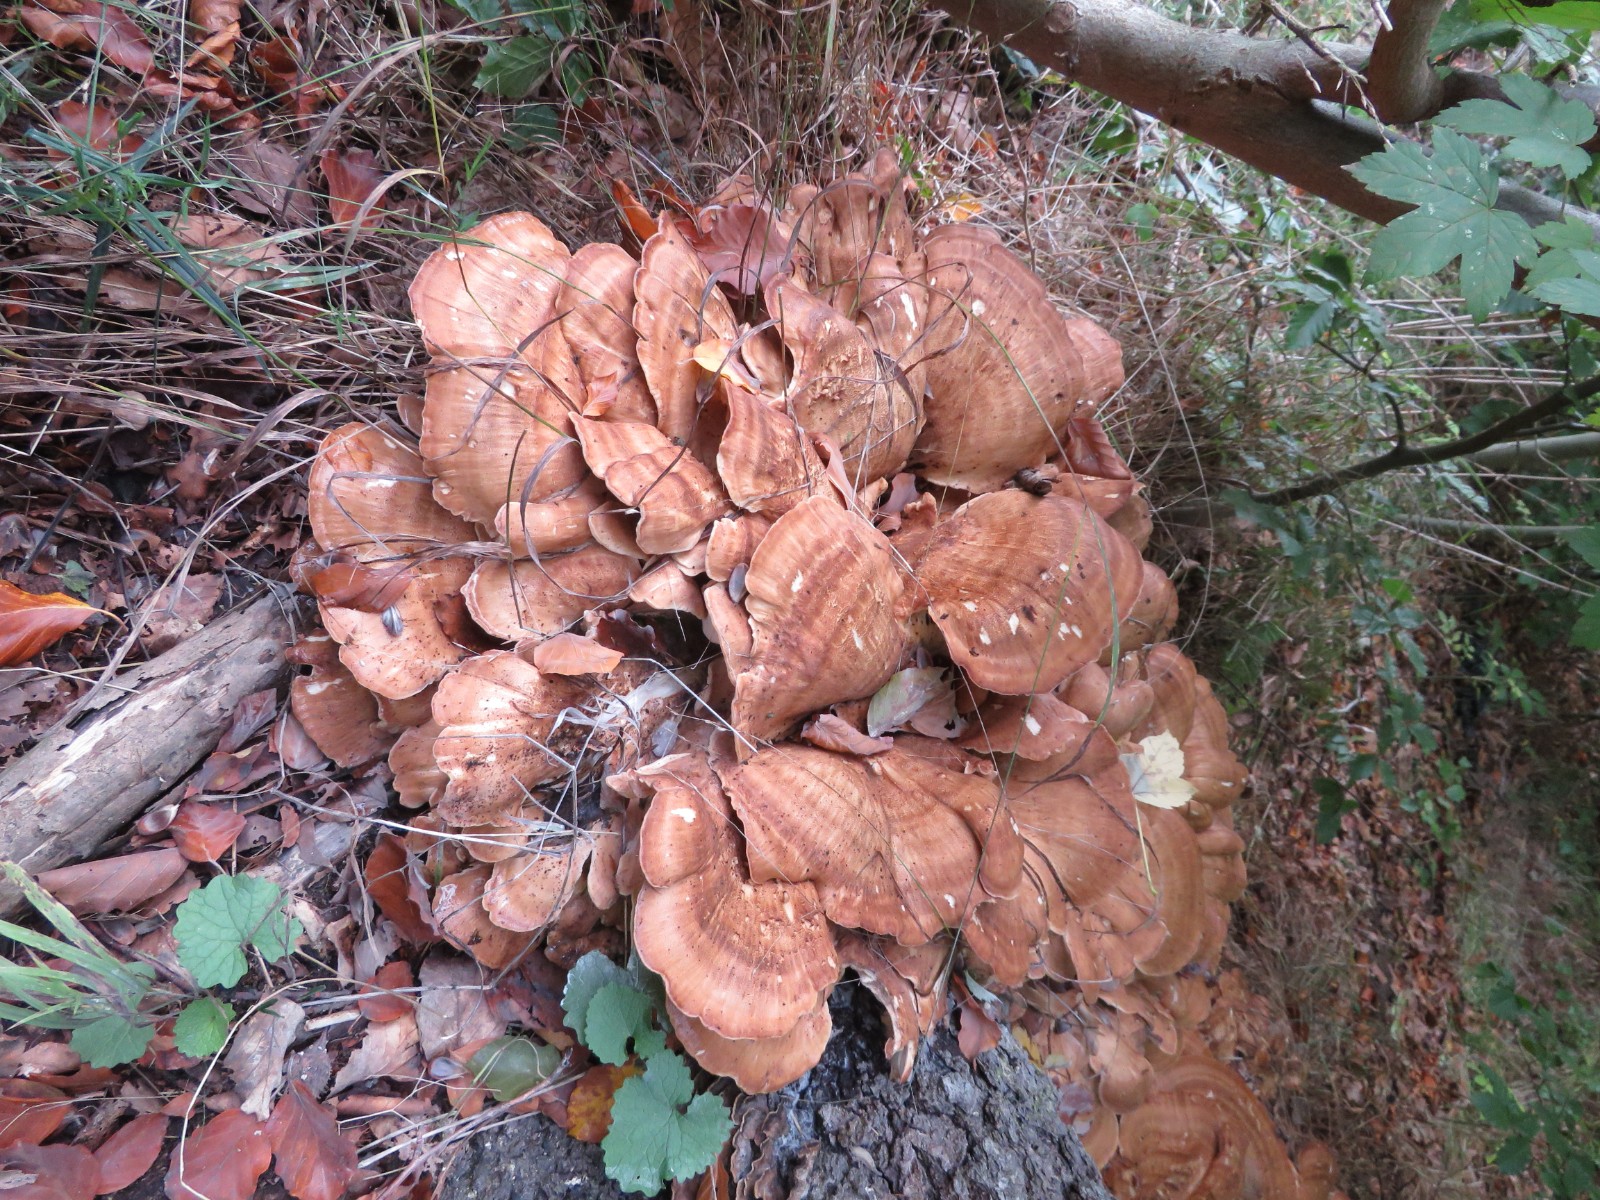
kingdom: Fungi
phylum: Basidiomycota
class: Agaricomycetes
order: Polyporales
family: Meripilaceae
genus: Meripilus
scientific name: Meripilus giganteus
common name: kæmpeporesvamp
